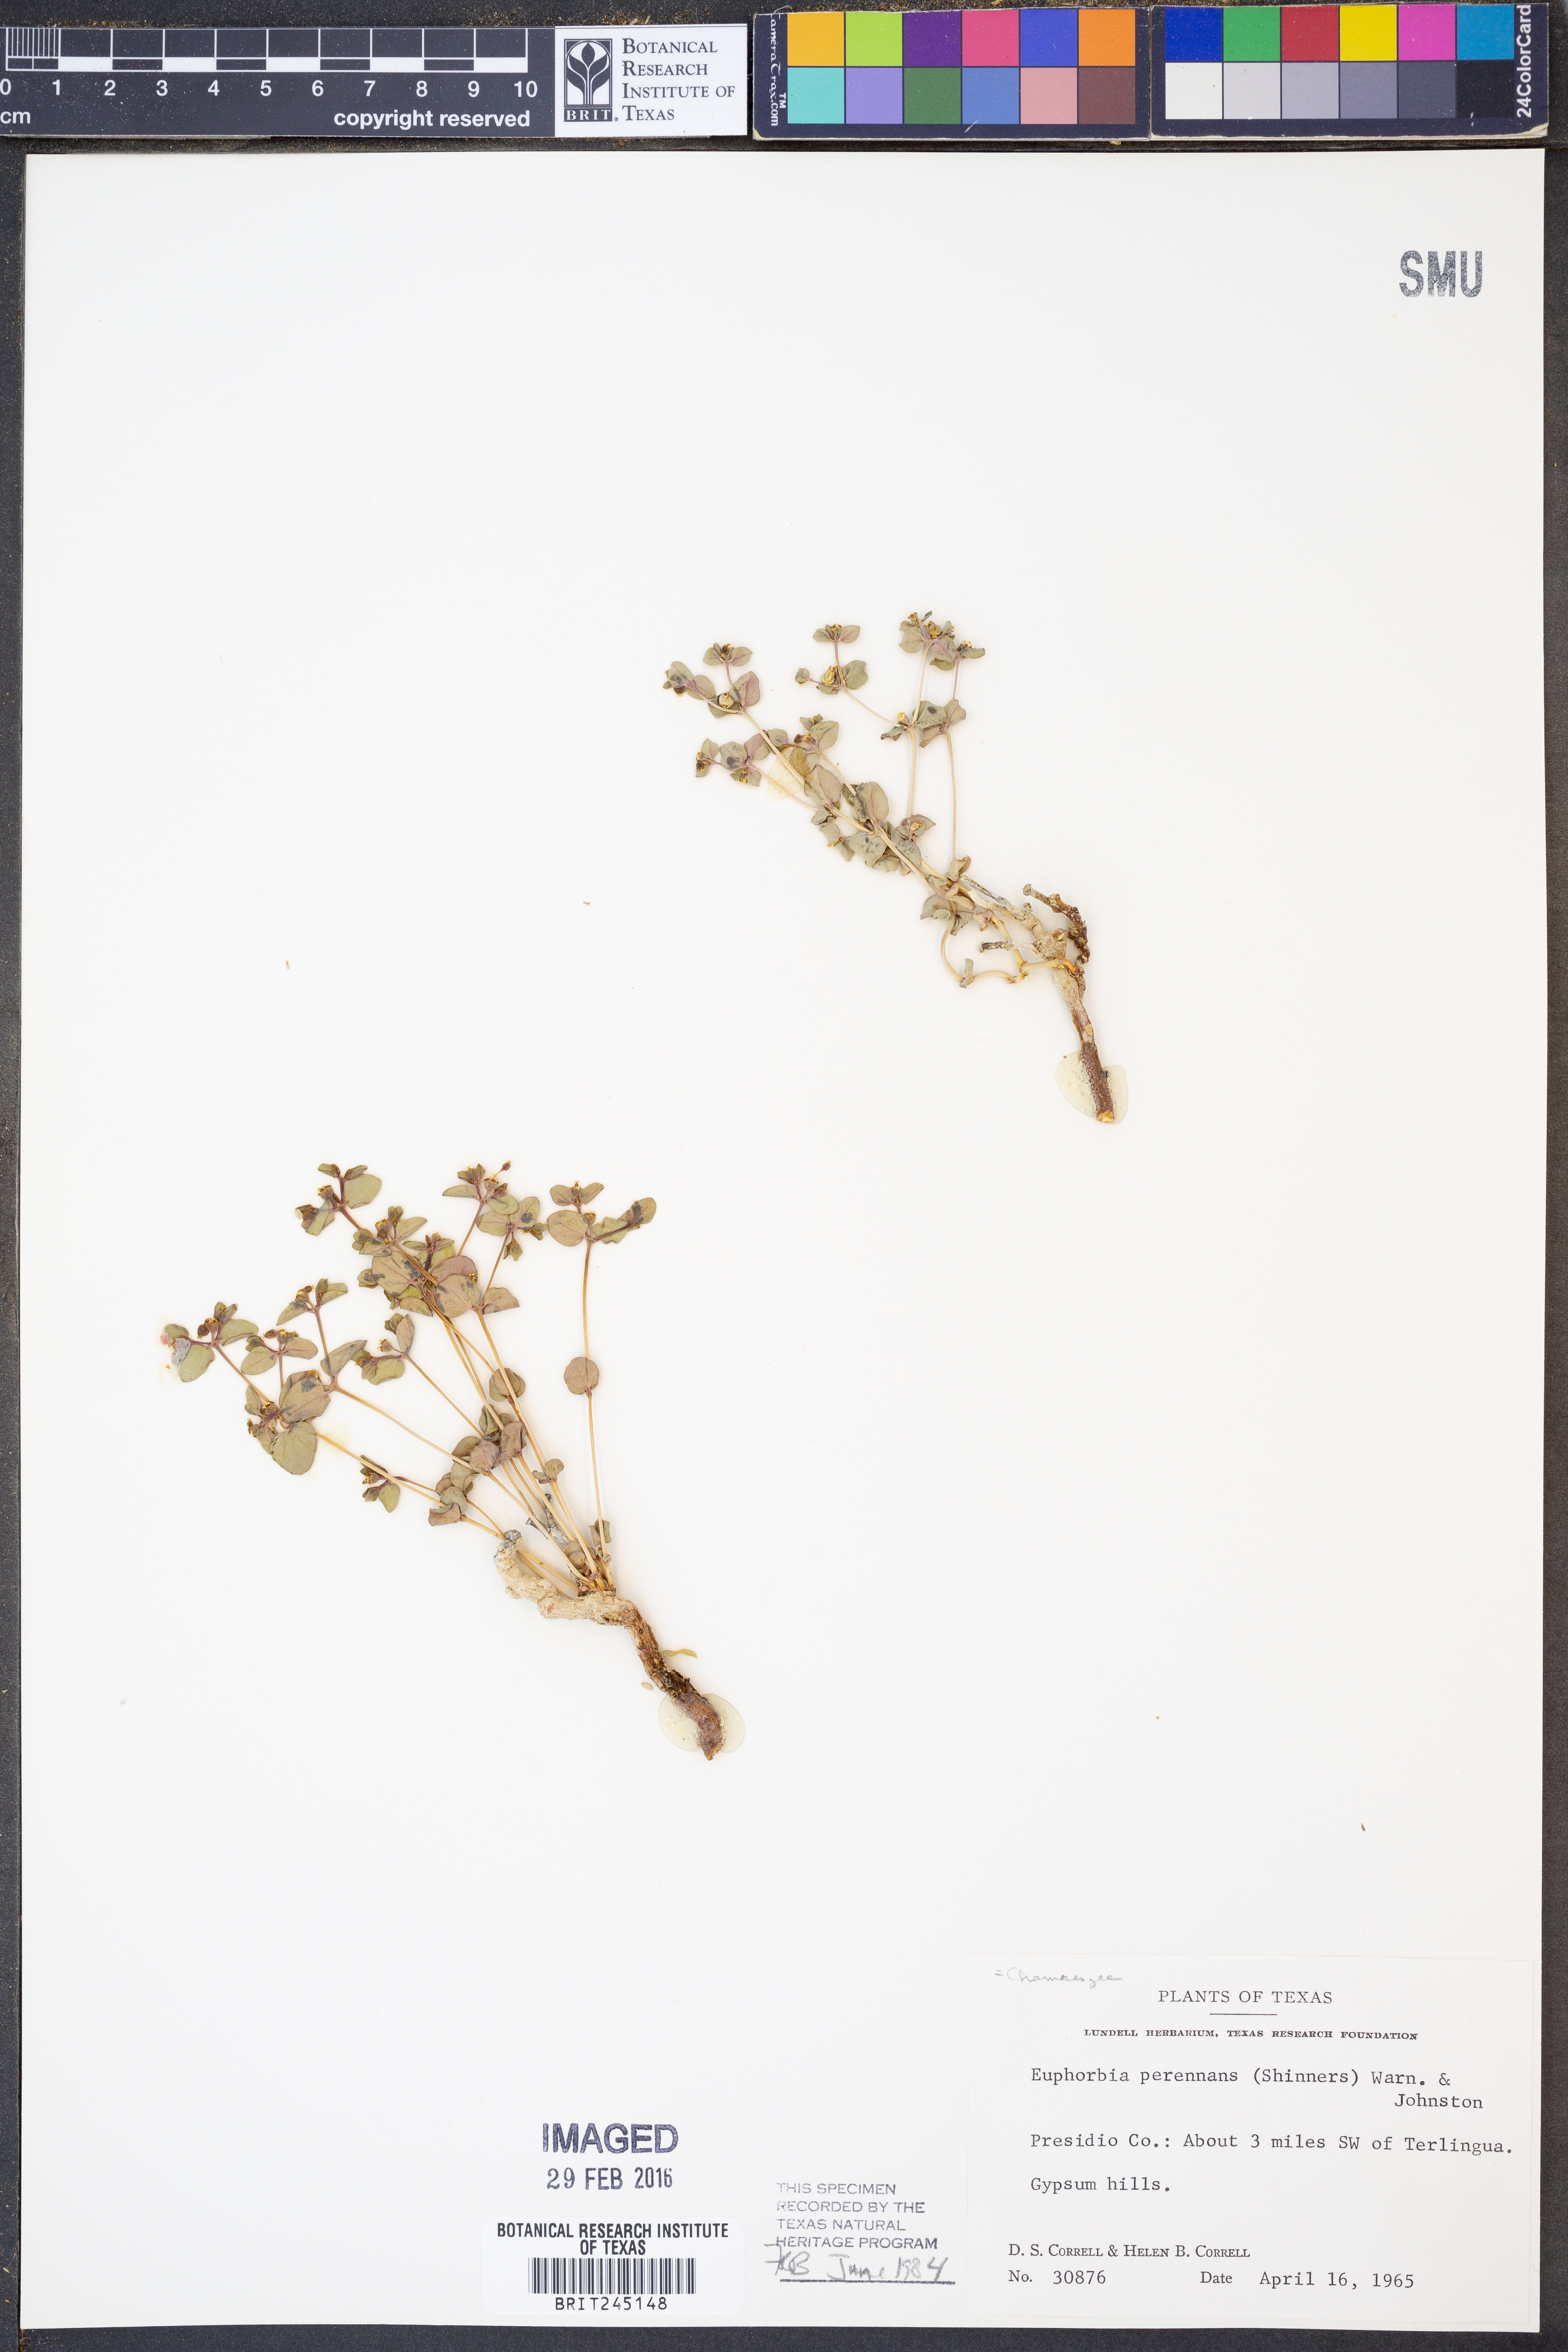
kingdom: Plantae
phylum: Tracheophyta
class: Magnoliopsida
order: Malpighiales
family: Euphorbiaceae
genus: Euphorbia
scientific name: Euphorbia perennans
